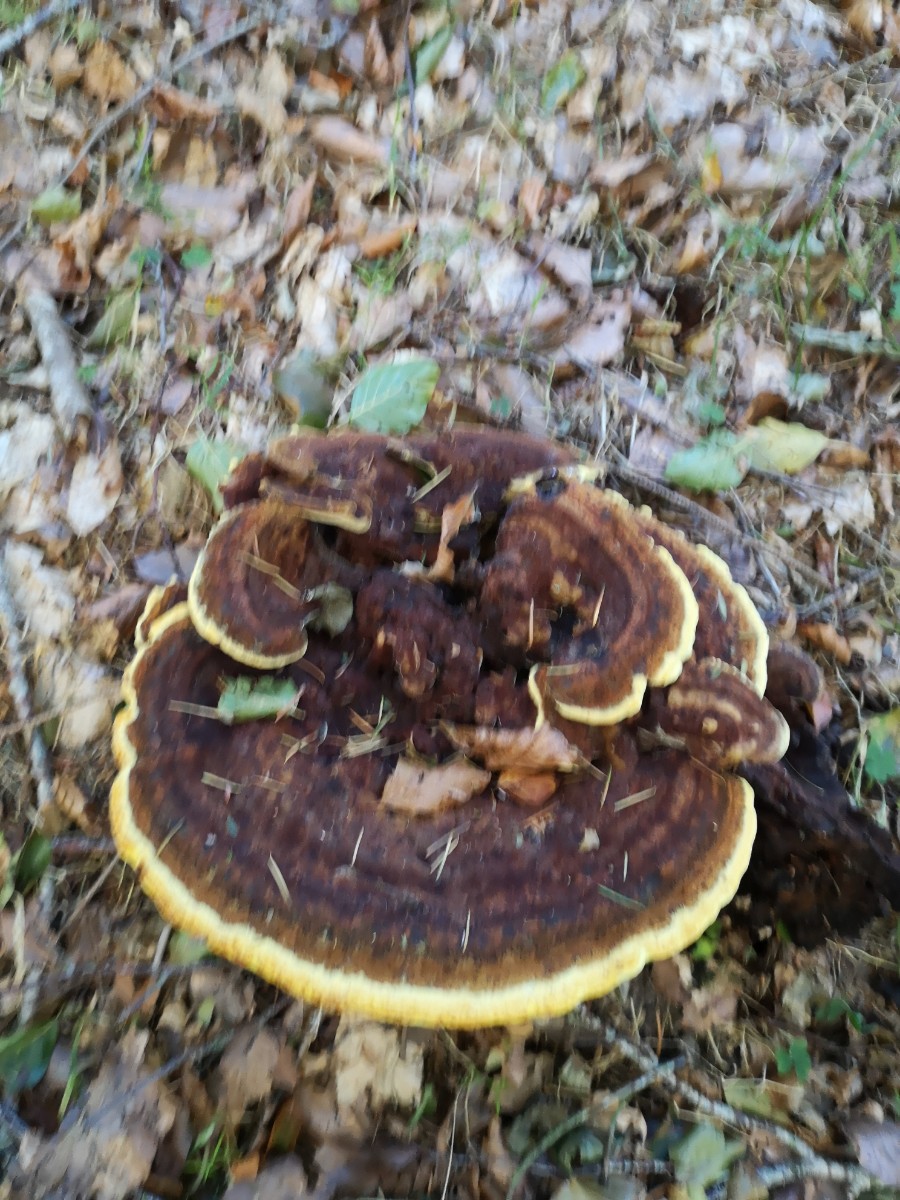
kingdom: Fungi
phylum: Basidiomycota
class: Agaricomycetes
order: Polyporales
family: Laetiporaceae
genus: Phaeolus
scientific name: Phaeolus schweinitzii
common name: brunporesvamp
